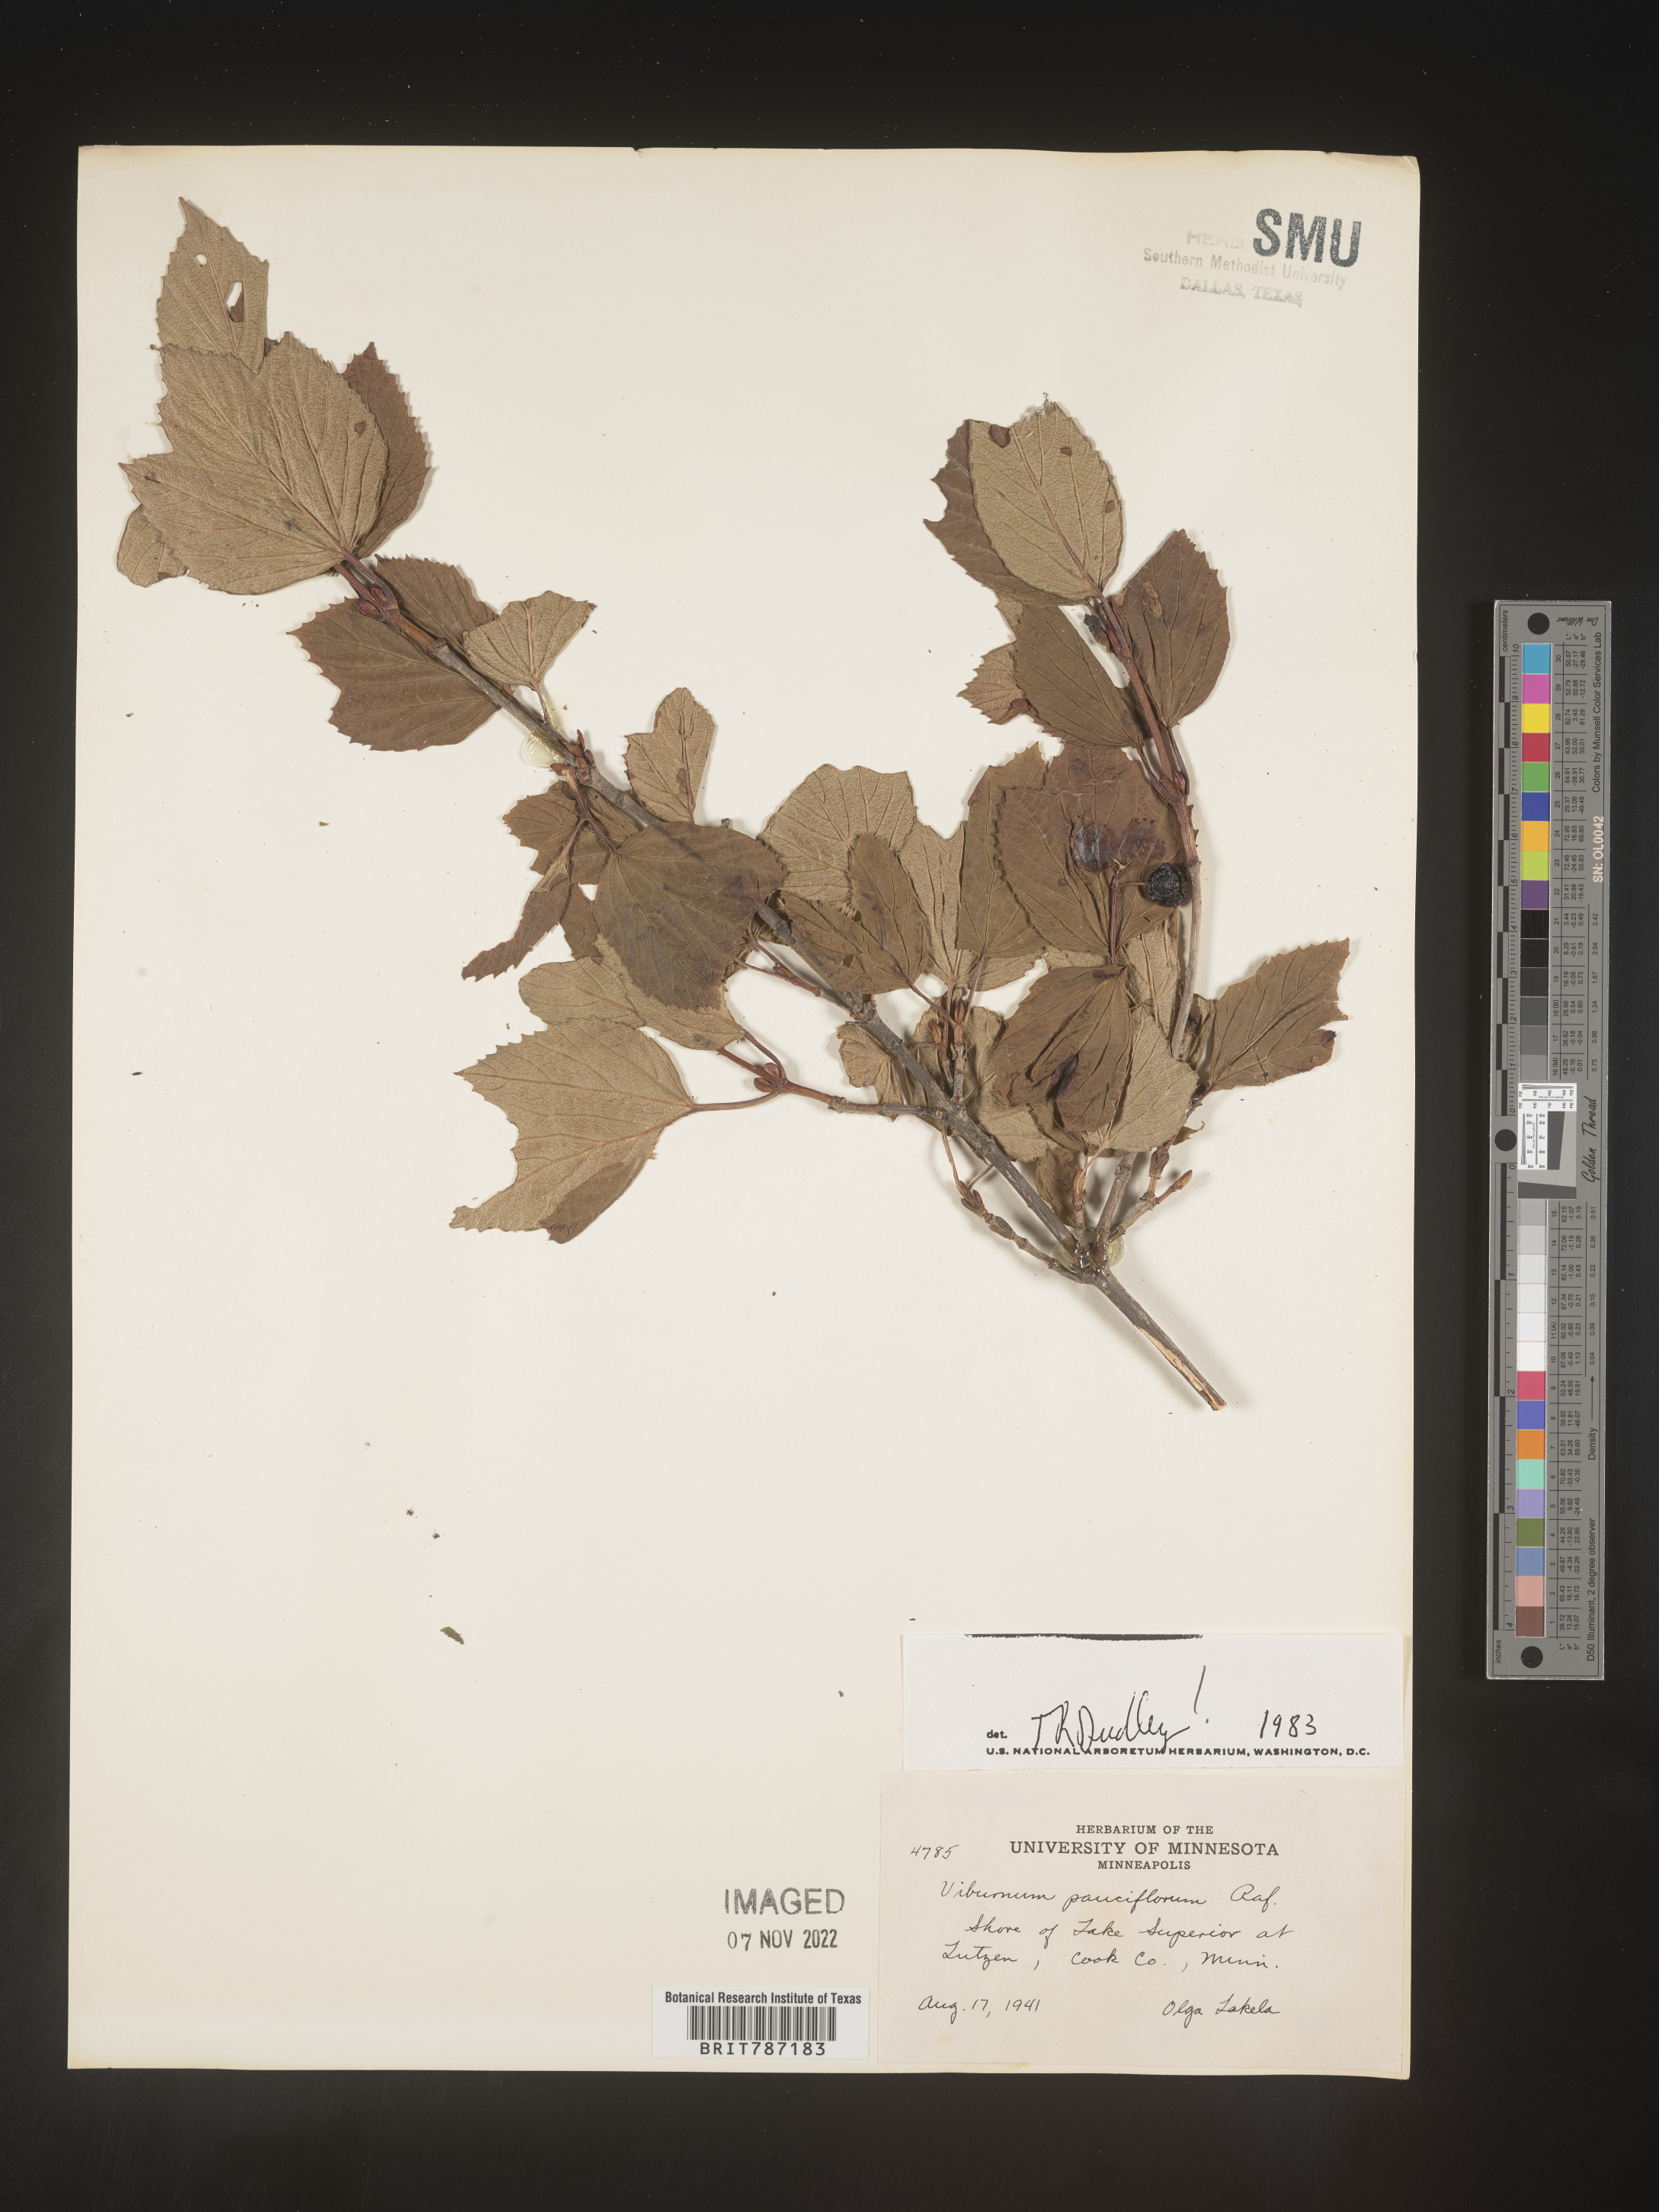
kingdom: Plantae
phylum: Tracheophyta
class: Magnoliopsida
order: Dipsacales
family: Viburnaceae
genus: Viburnum
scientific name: Viburnum
